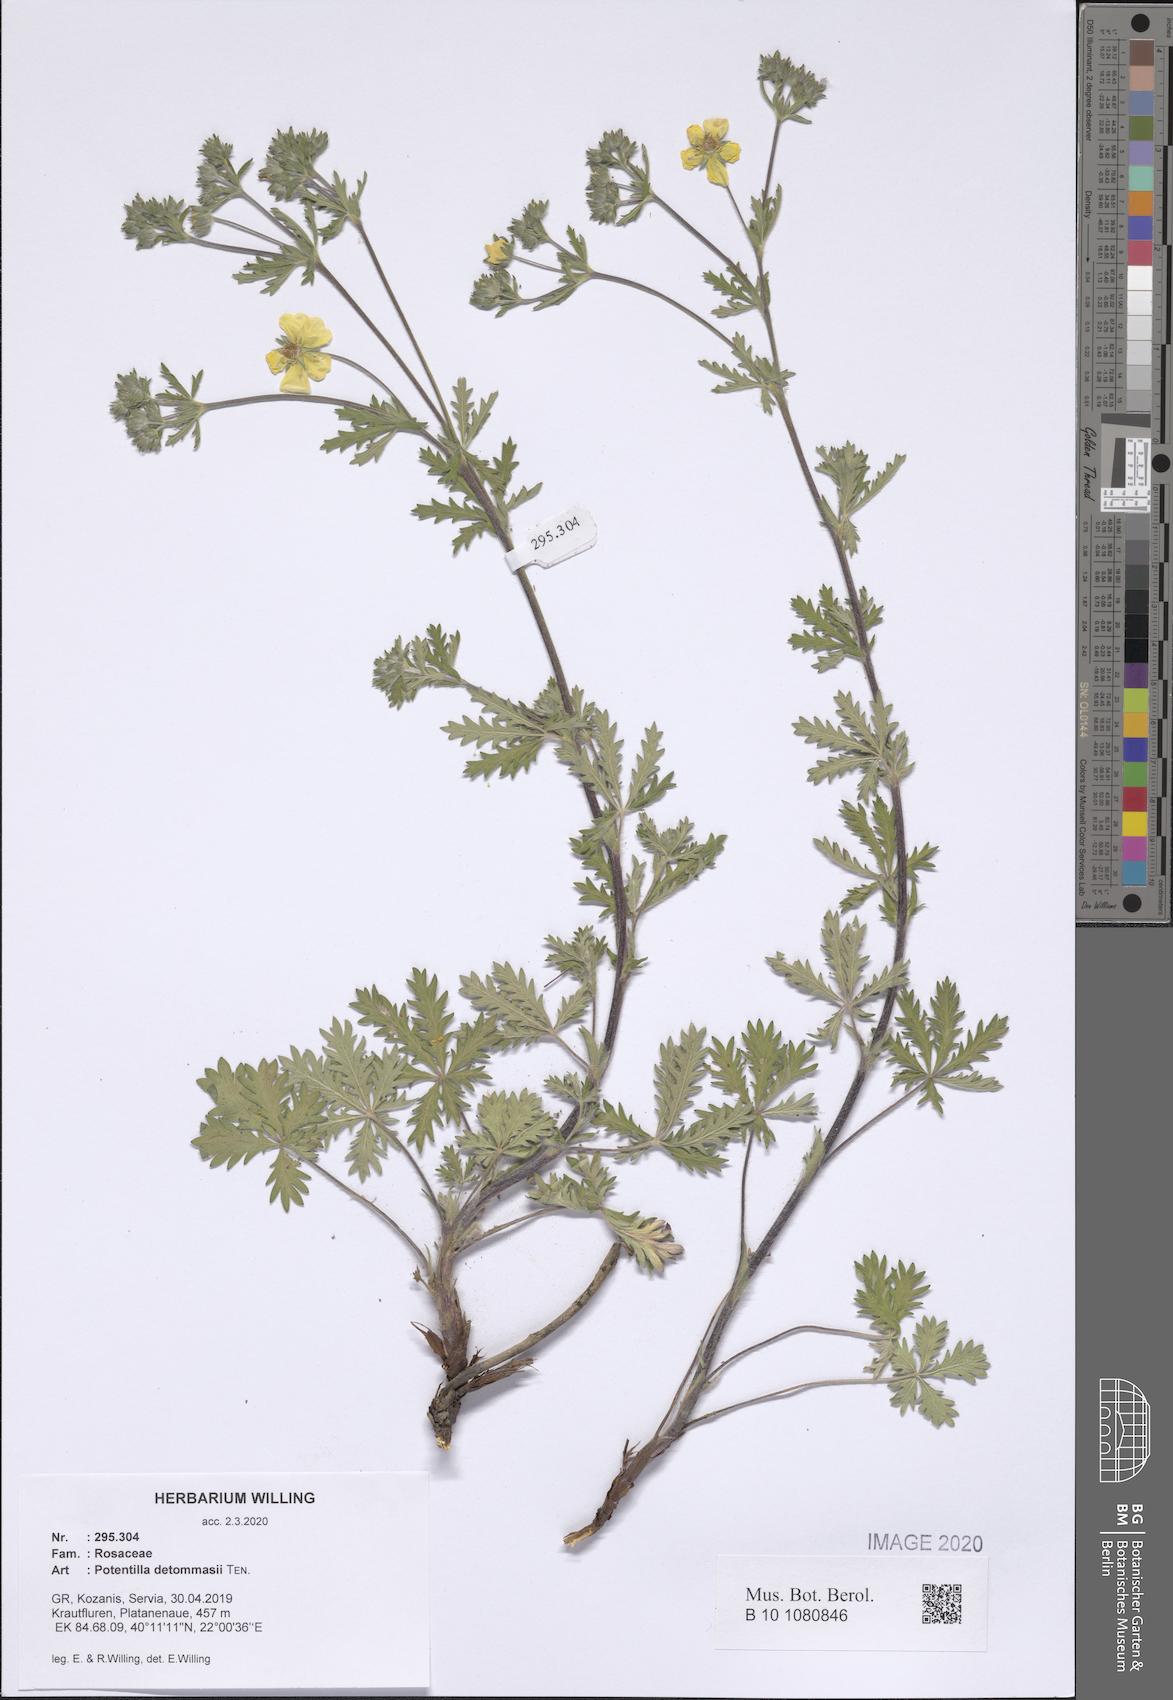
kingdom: Plantae
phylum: Tracheophyta
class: Magnoliopsida
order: Rosales
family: Rosaceae
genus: Potentilla
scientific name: Potentilla detommasii
